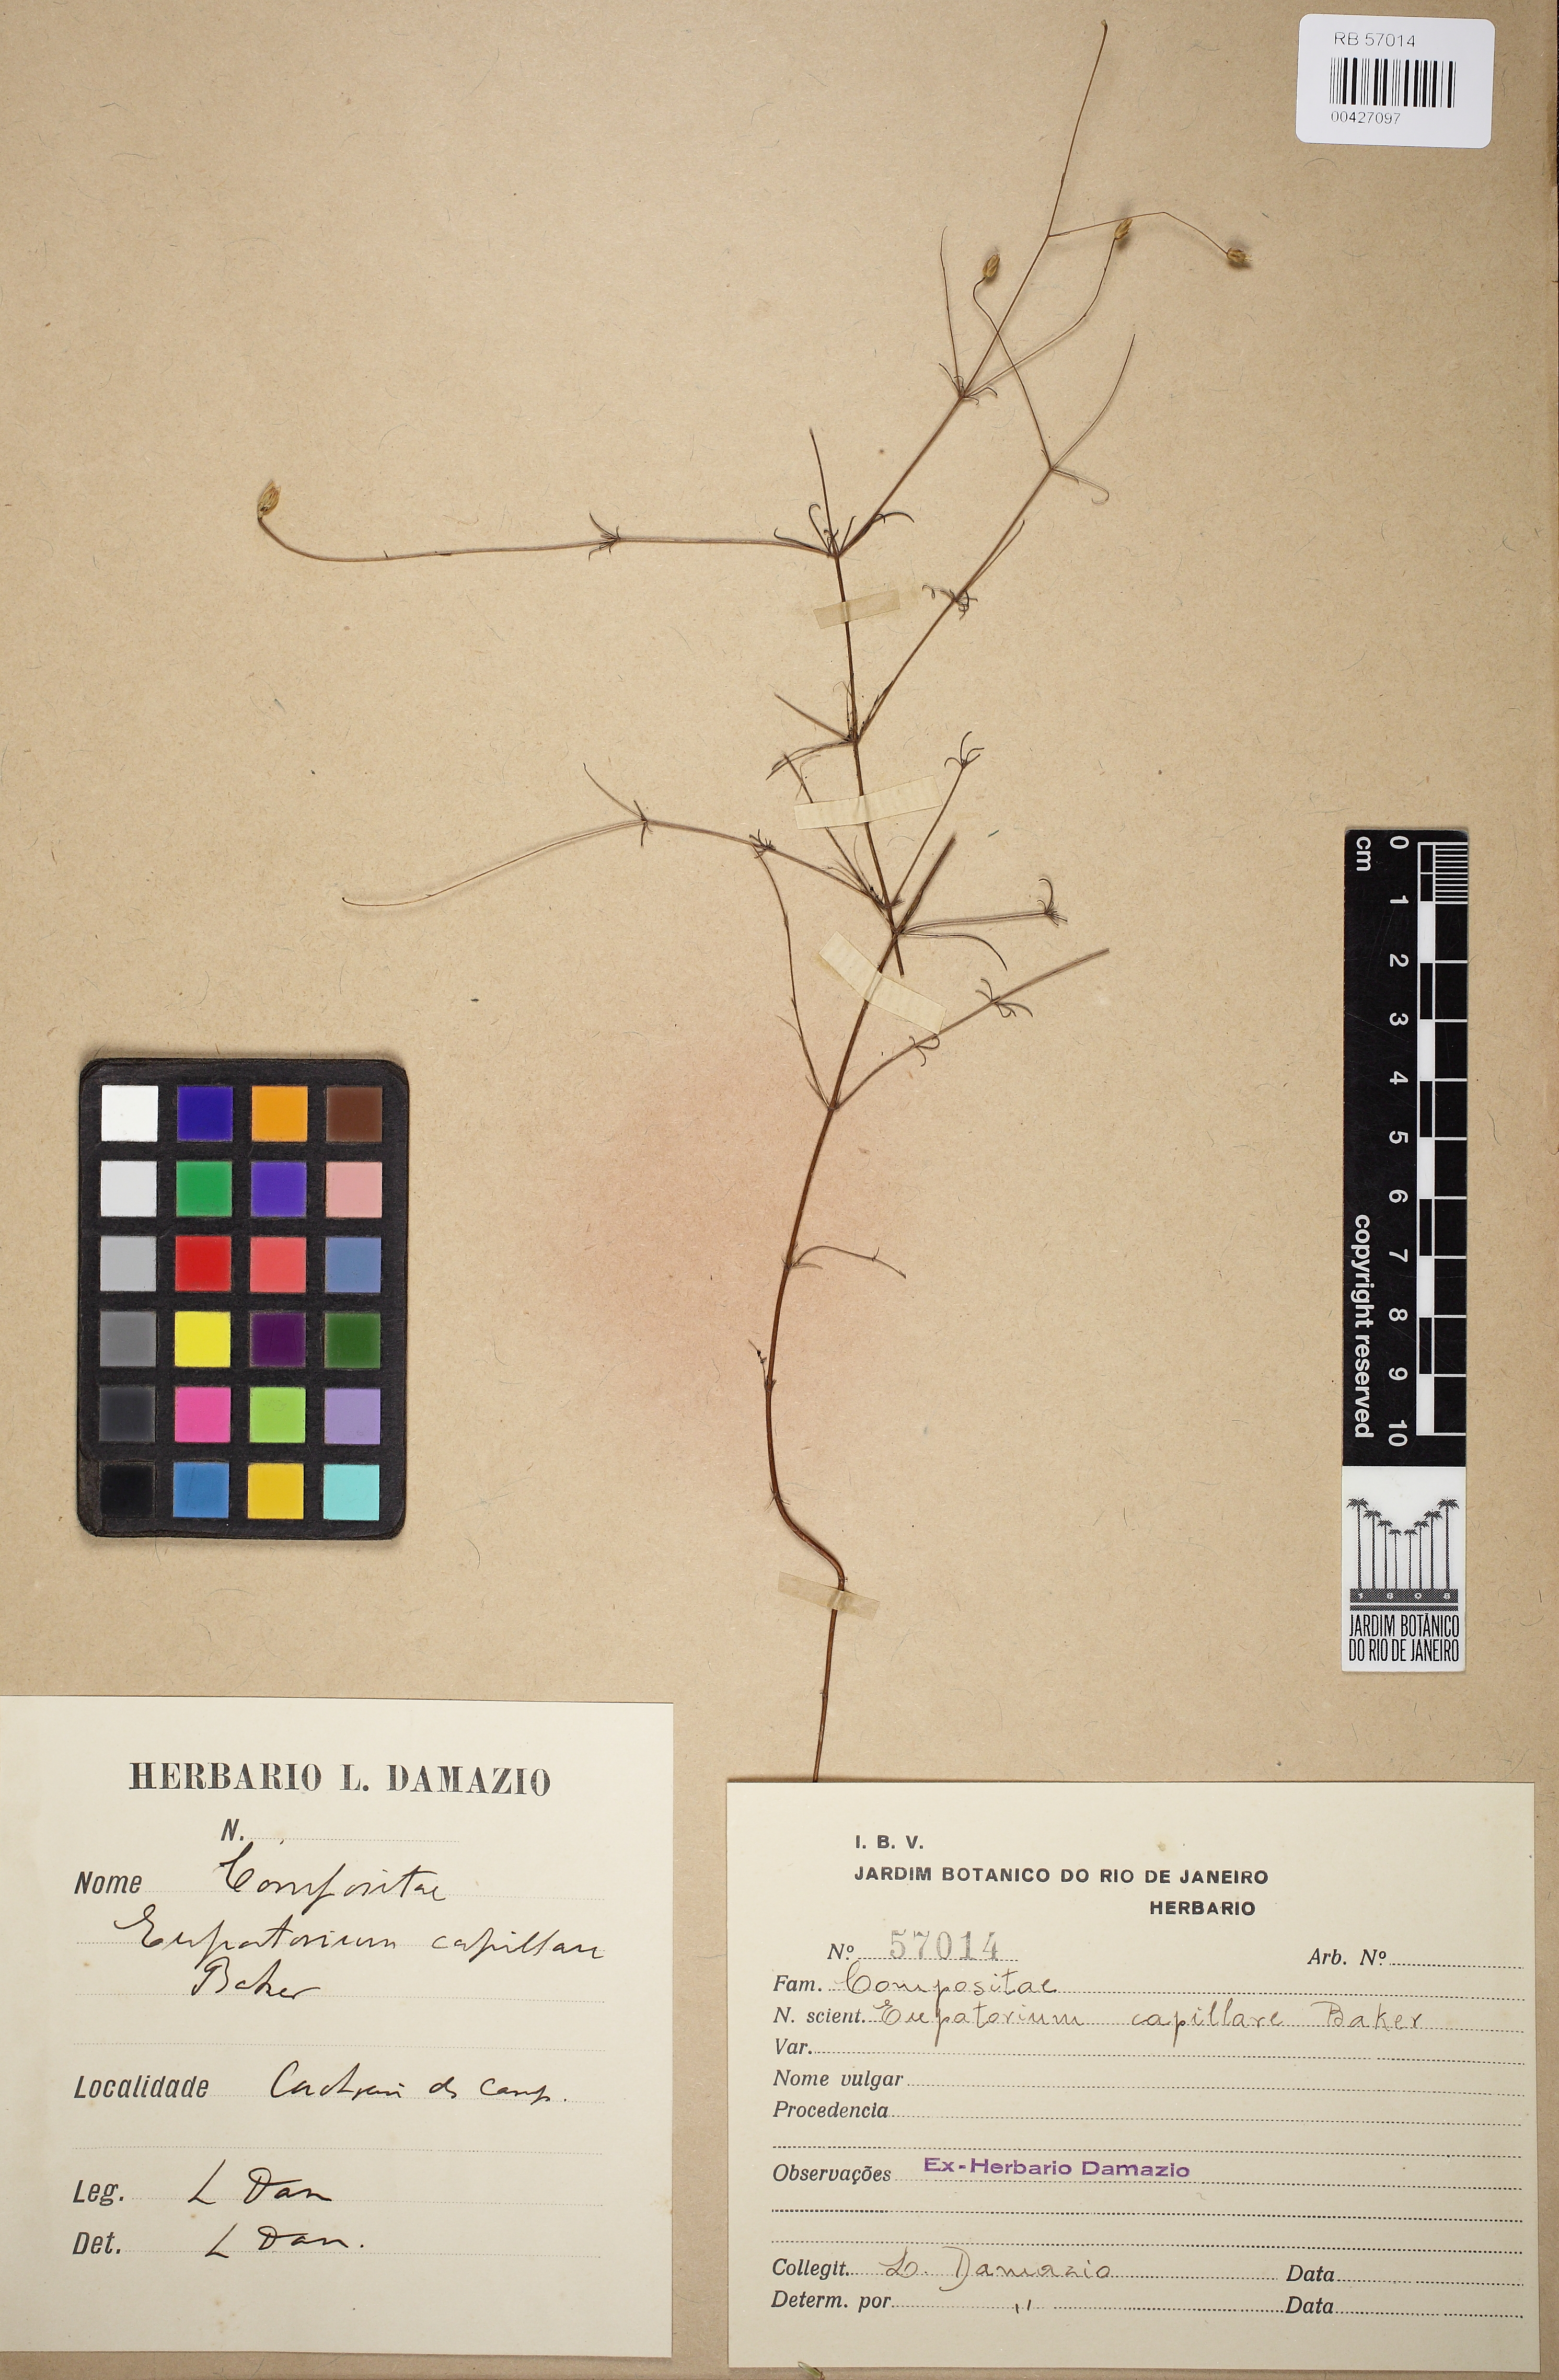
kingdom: Plantae
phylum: Tracheophyta
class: Magnoliopsida
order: Asterales
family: Asteraceae
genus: Praxelis
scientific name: Praxelis capillaris
